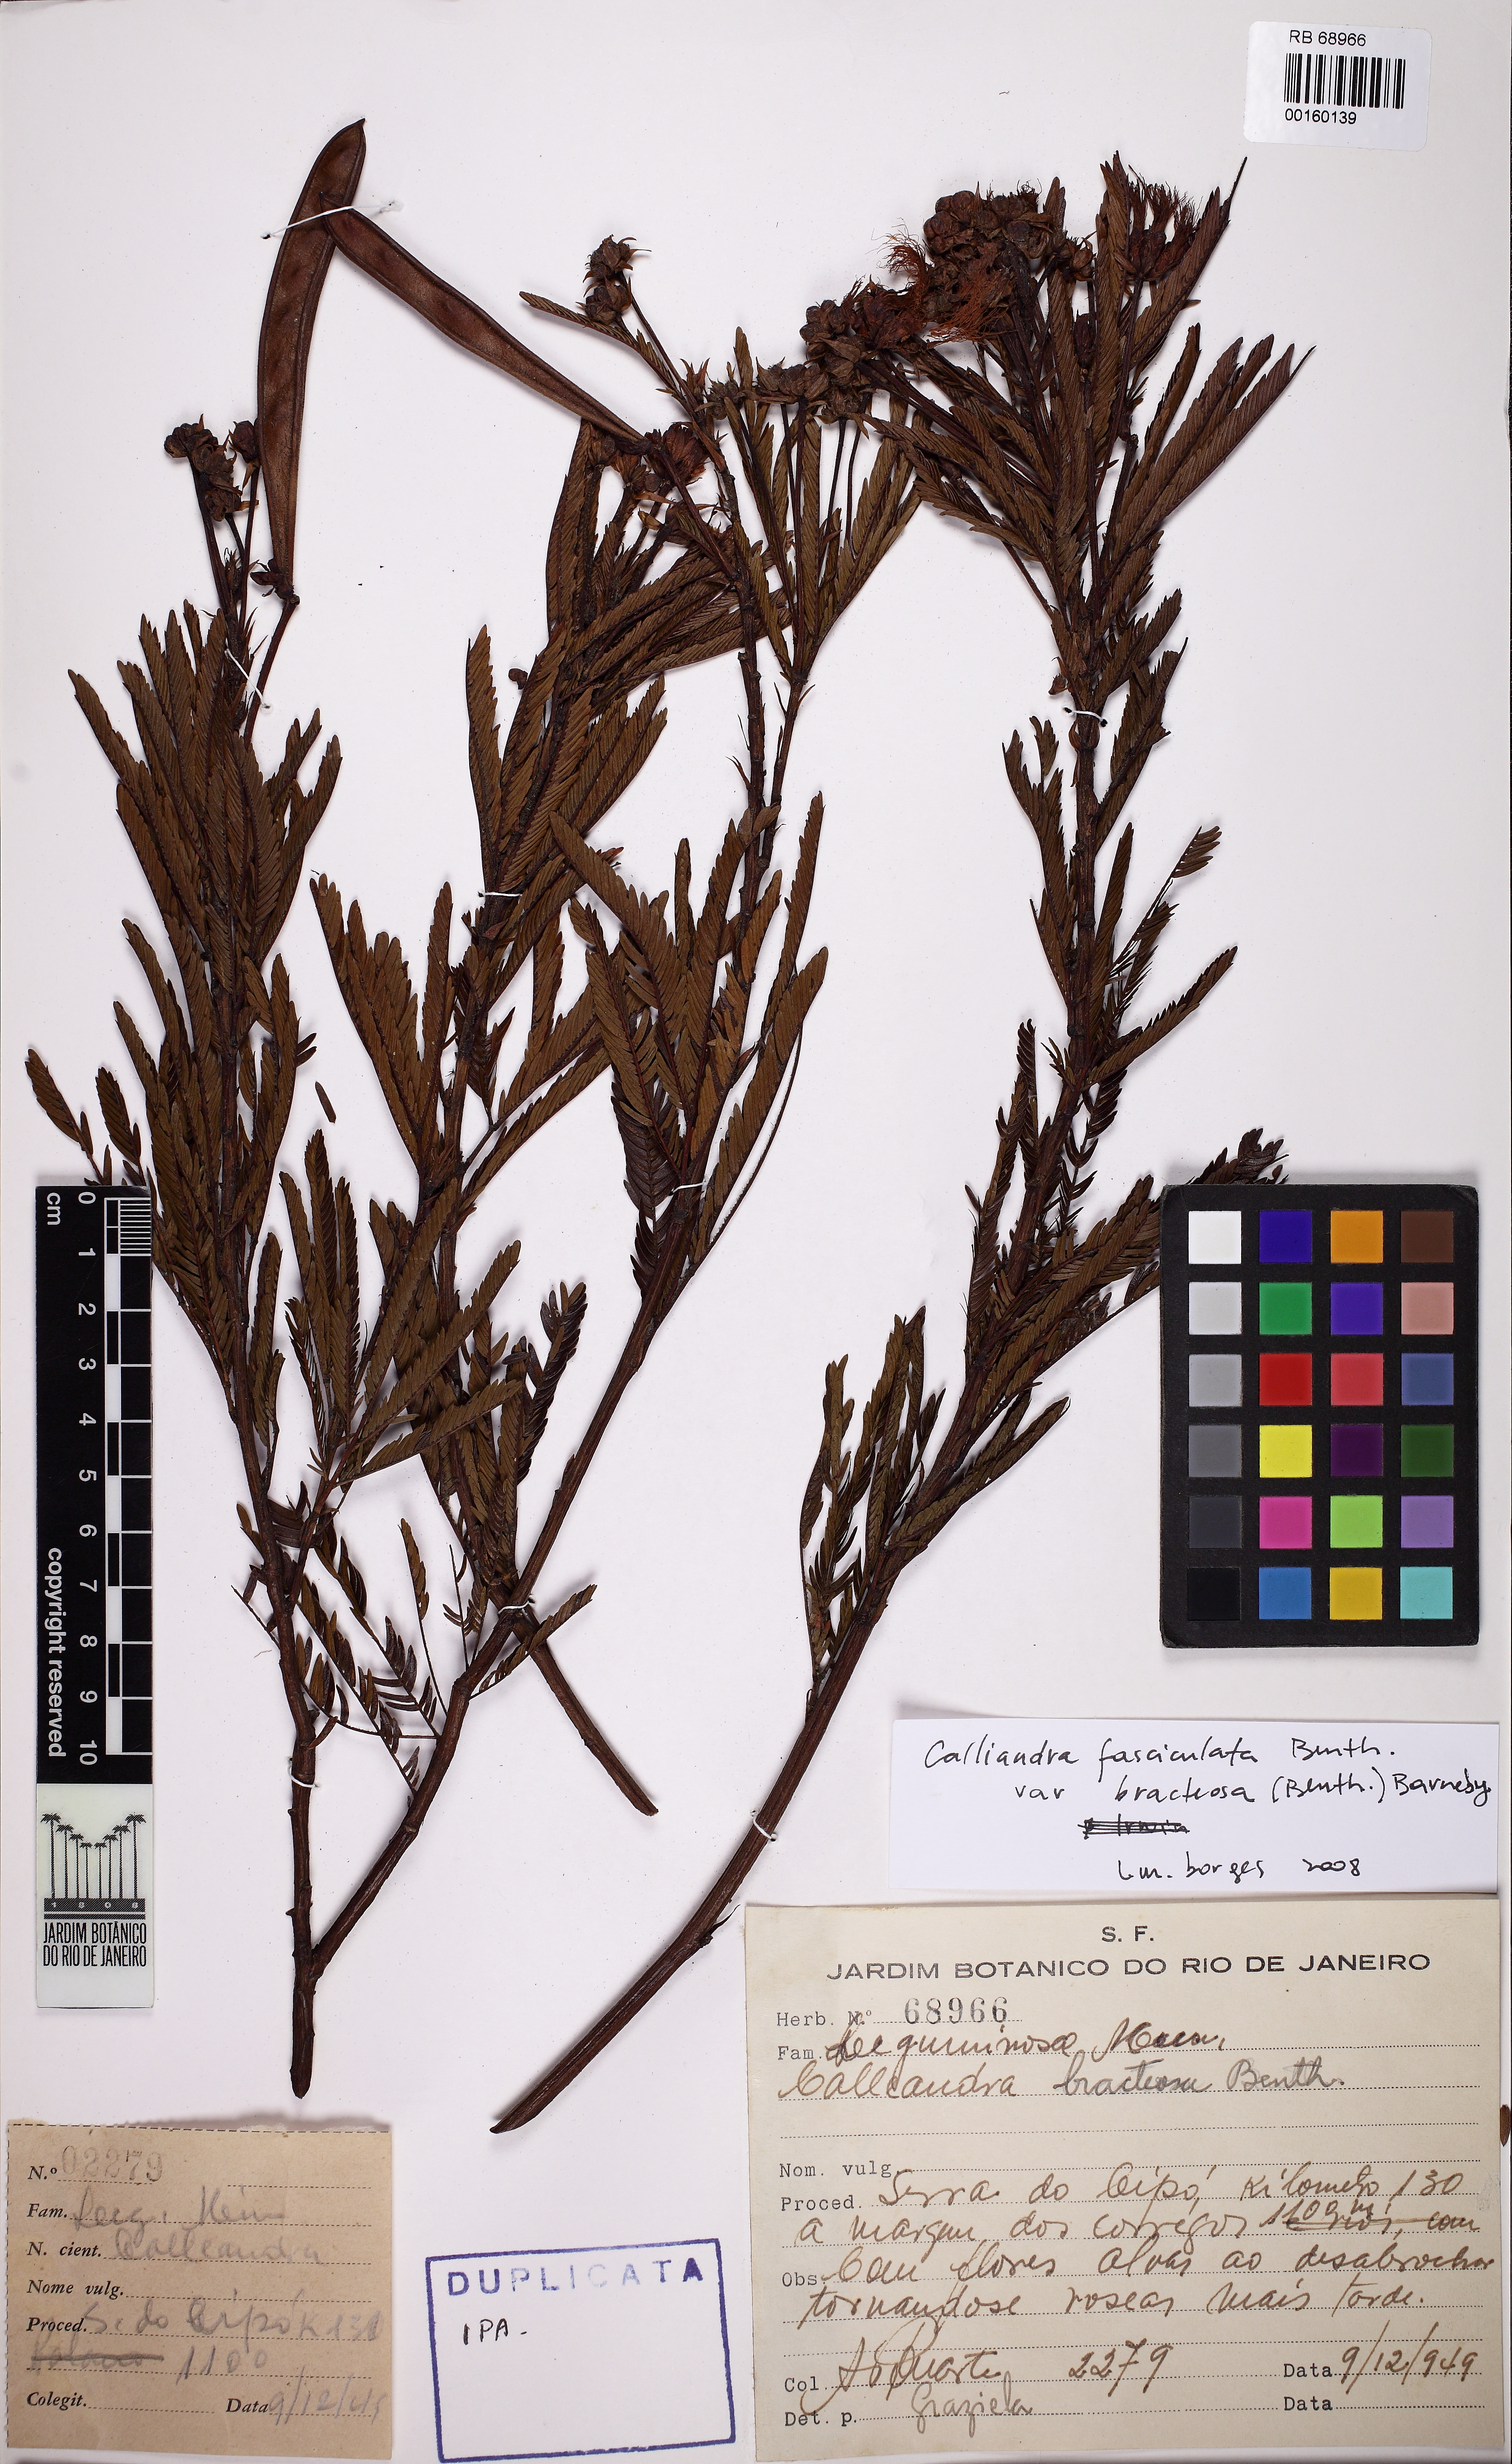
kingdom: Plantae
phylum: Tracheophyta
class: Magnoliopsida
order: Fabales
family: Fabaceae
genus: Calliandra
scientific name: Calliandra fasciculata
